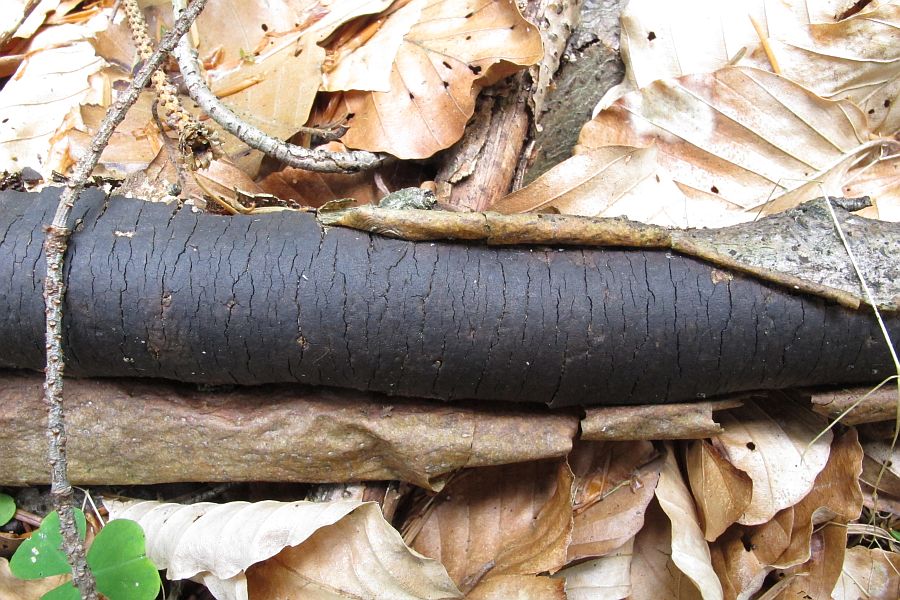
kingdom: Fungi
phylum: Ascomycota
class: Sordariomycetes
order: Xylariales
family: Diatrypaceae
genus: Diatrype
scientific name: Diatrype decorticata
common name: barksprænger-kulskorpe
